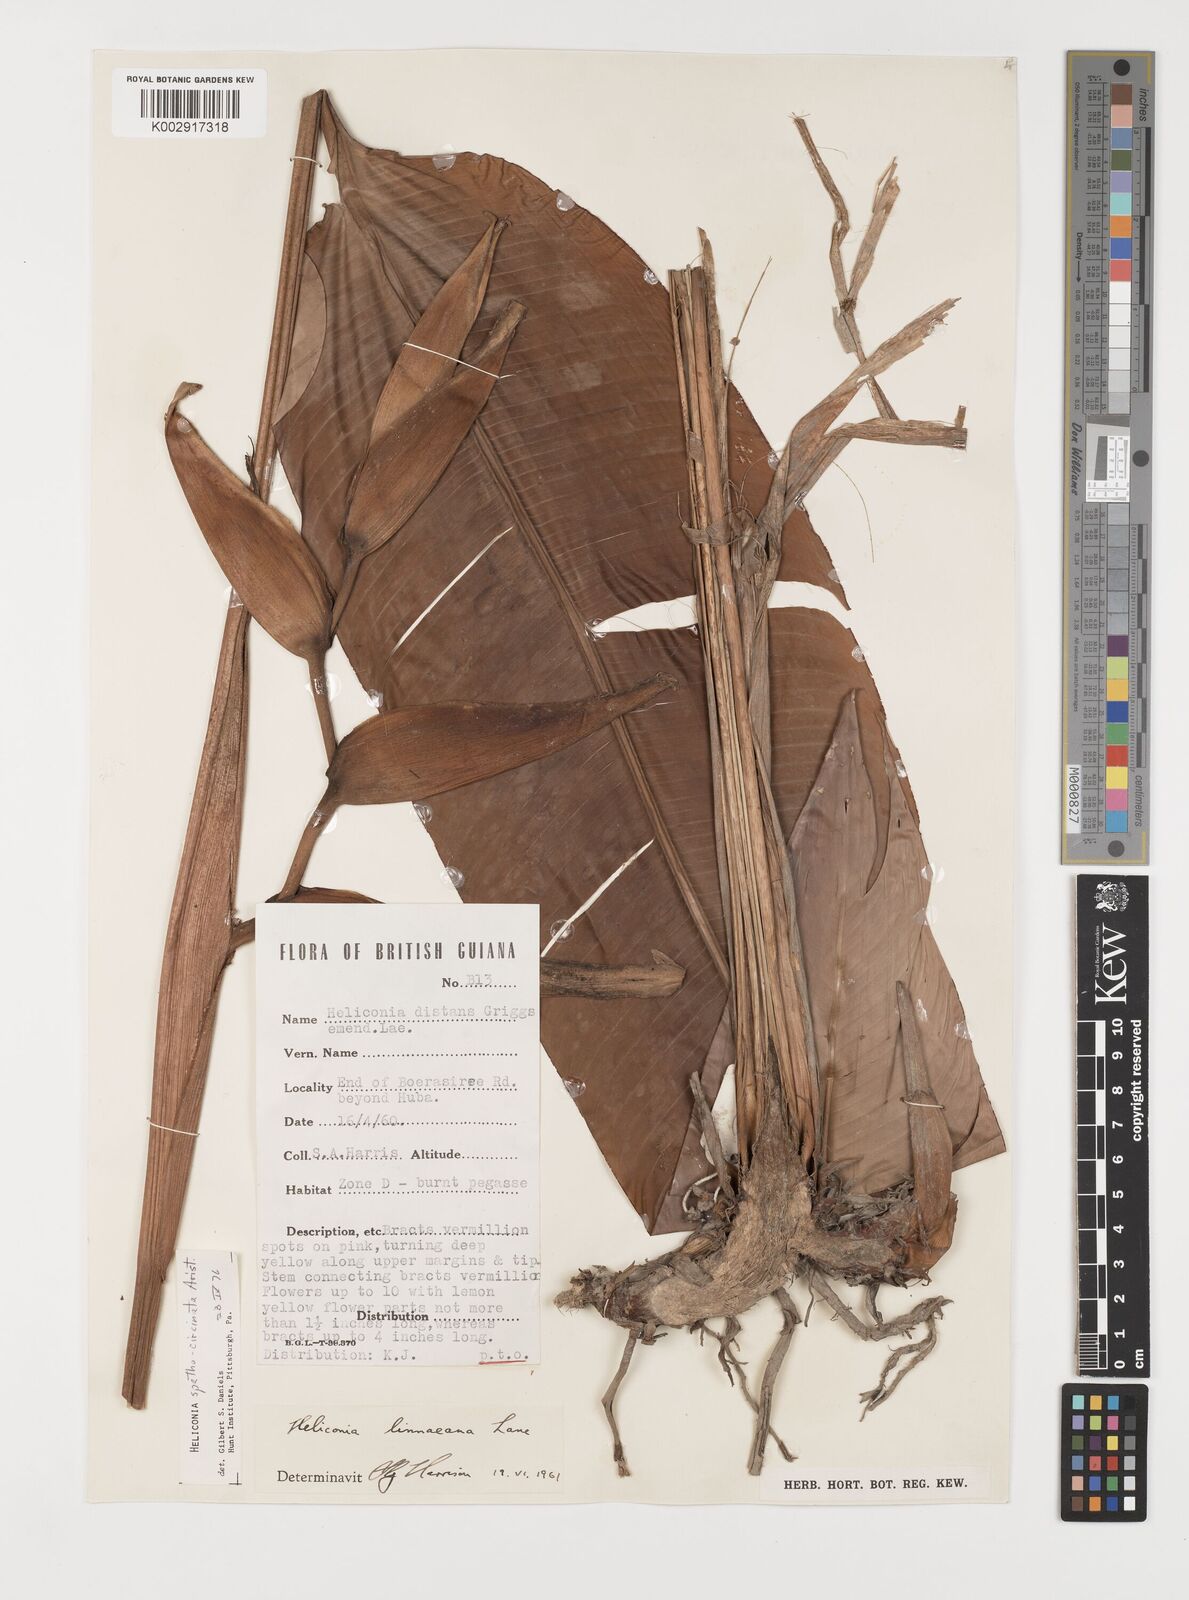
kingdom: Plantae
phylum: Tracheophyta
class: Liliopsida
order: Zingiberales
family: Heliconiaceae
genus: Heliconia
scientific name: Heliconia spathocircinata
